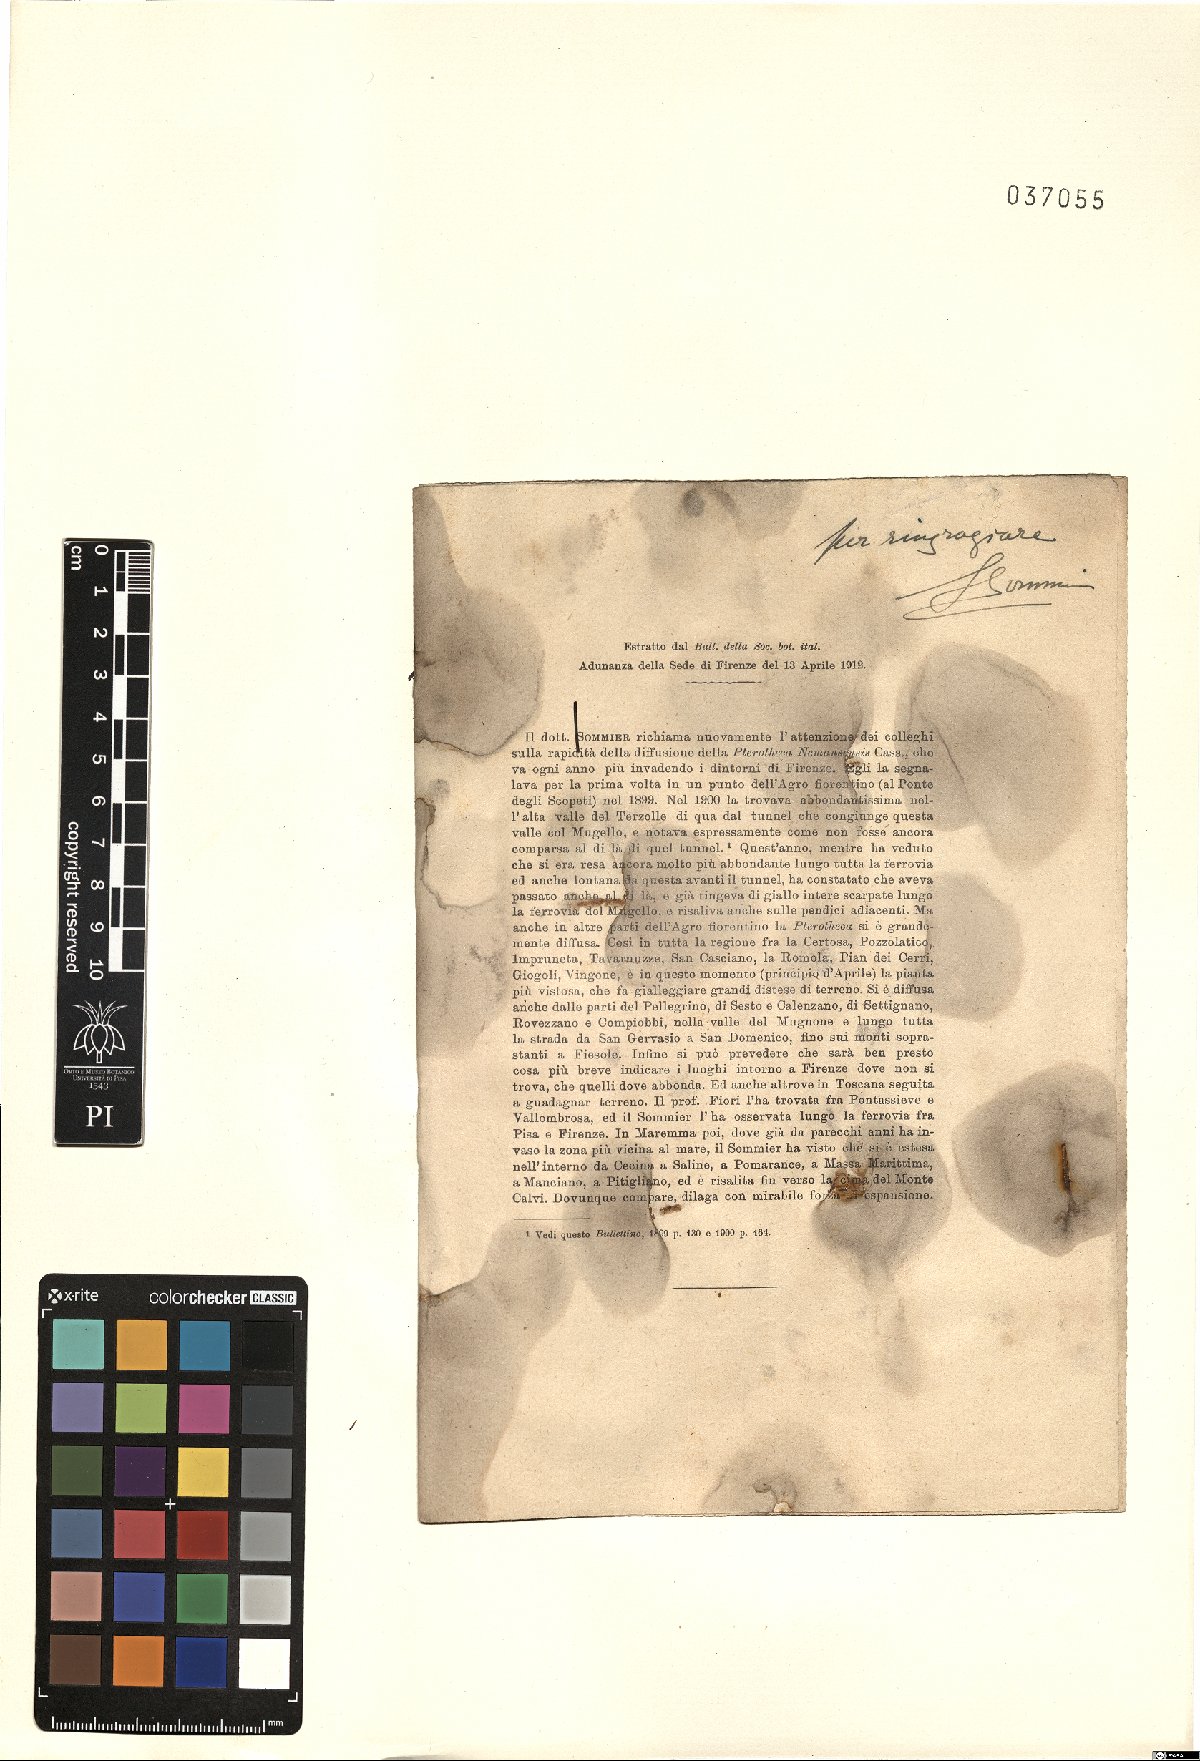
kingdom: Plantae
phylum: Tracheophyta
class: Magnoliopsida
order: Asterales
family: Asteraceae
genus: Crepis
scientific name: Crepis sancta
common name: Hawk's-beard
